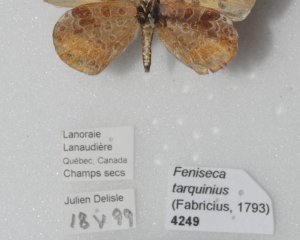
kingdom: Animalia
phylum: Arthropoda
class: Insecta
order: Lepidoptera
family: Lycaenidae
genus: Feniseca
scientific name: Feniseca tarquinius
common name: Harvester
